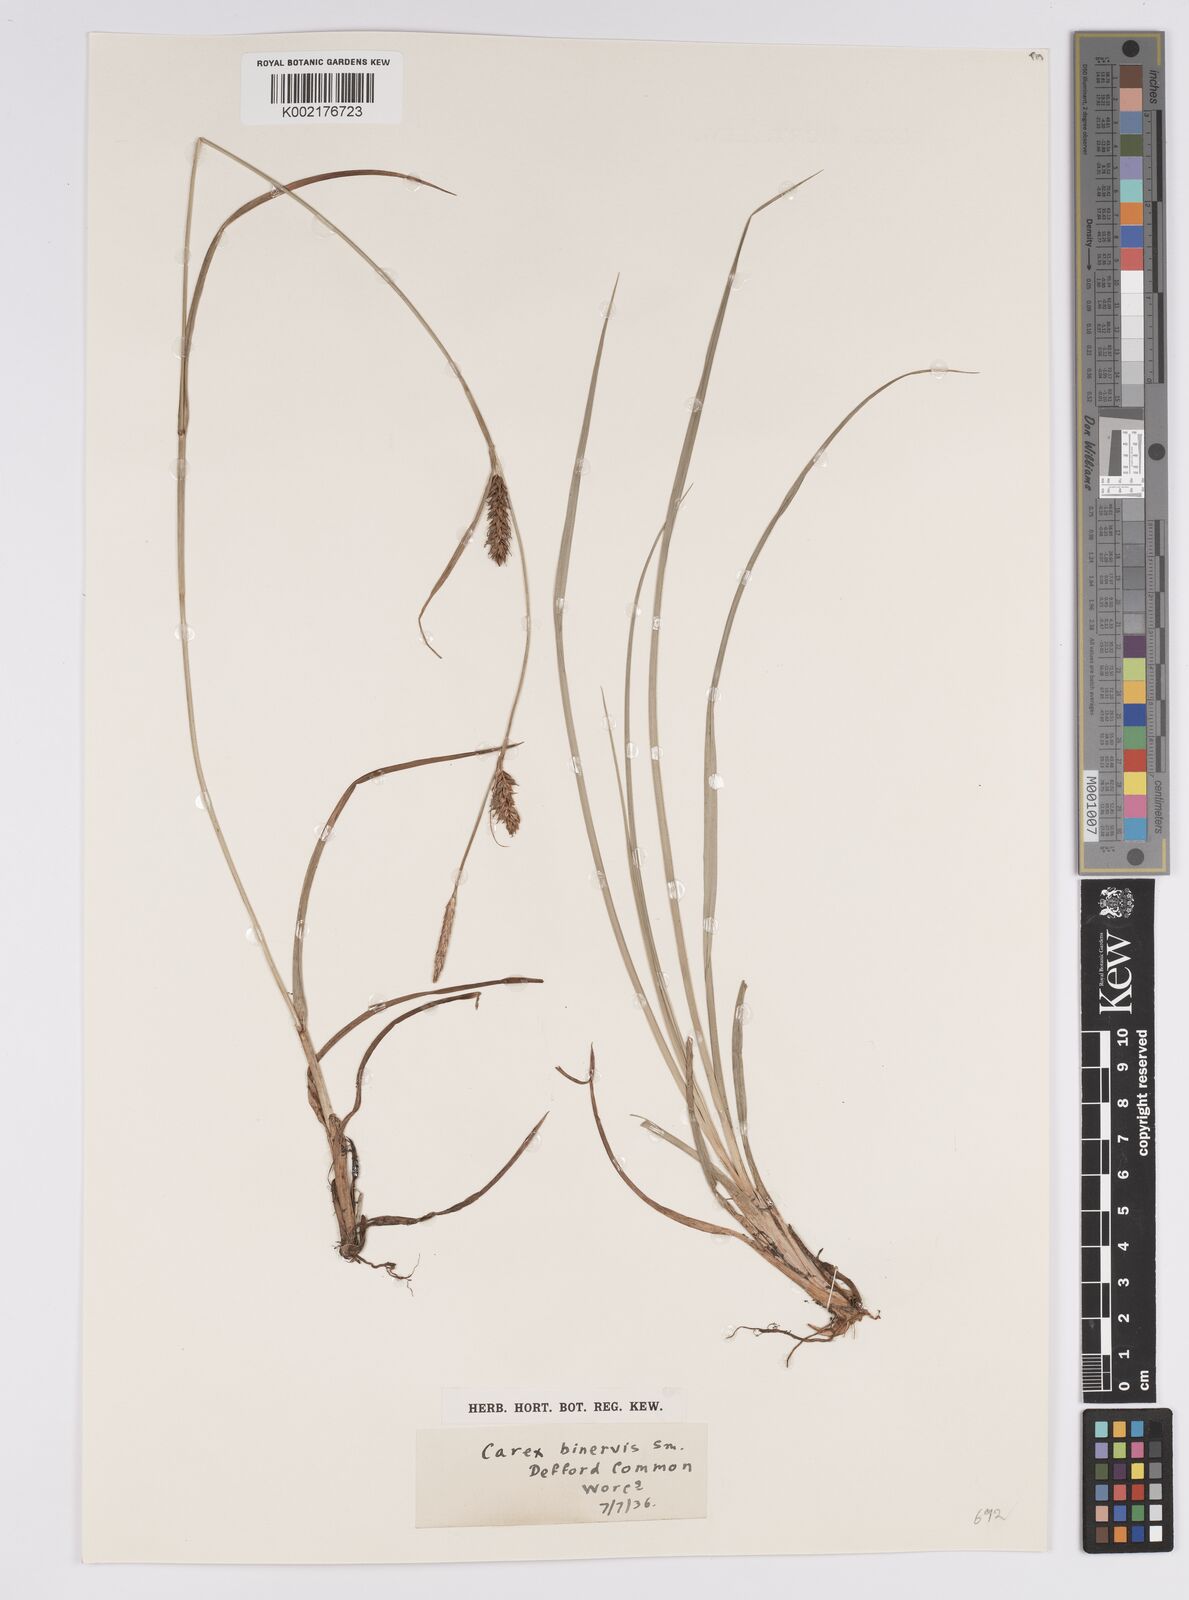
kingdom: Plantae
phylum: Tracheophyta
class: Liliopsida
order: Poales
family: Cyperaceae
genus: Carex
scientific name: Carex binervis
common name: Green-ribbed sedge
